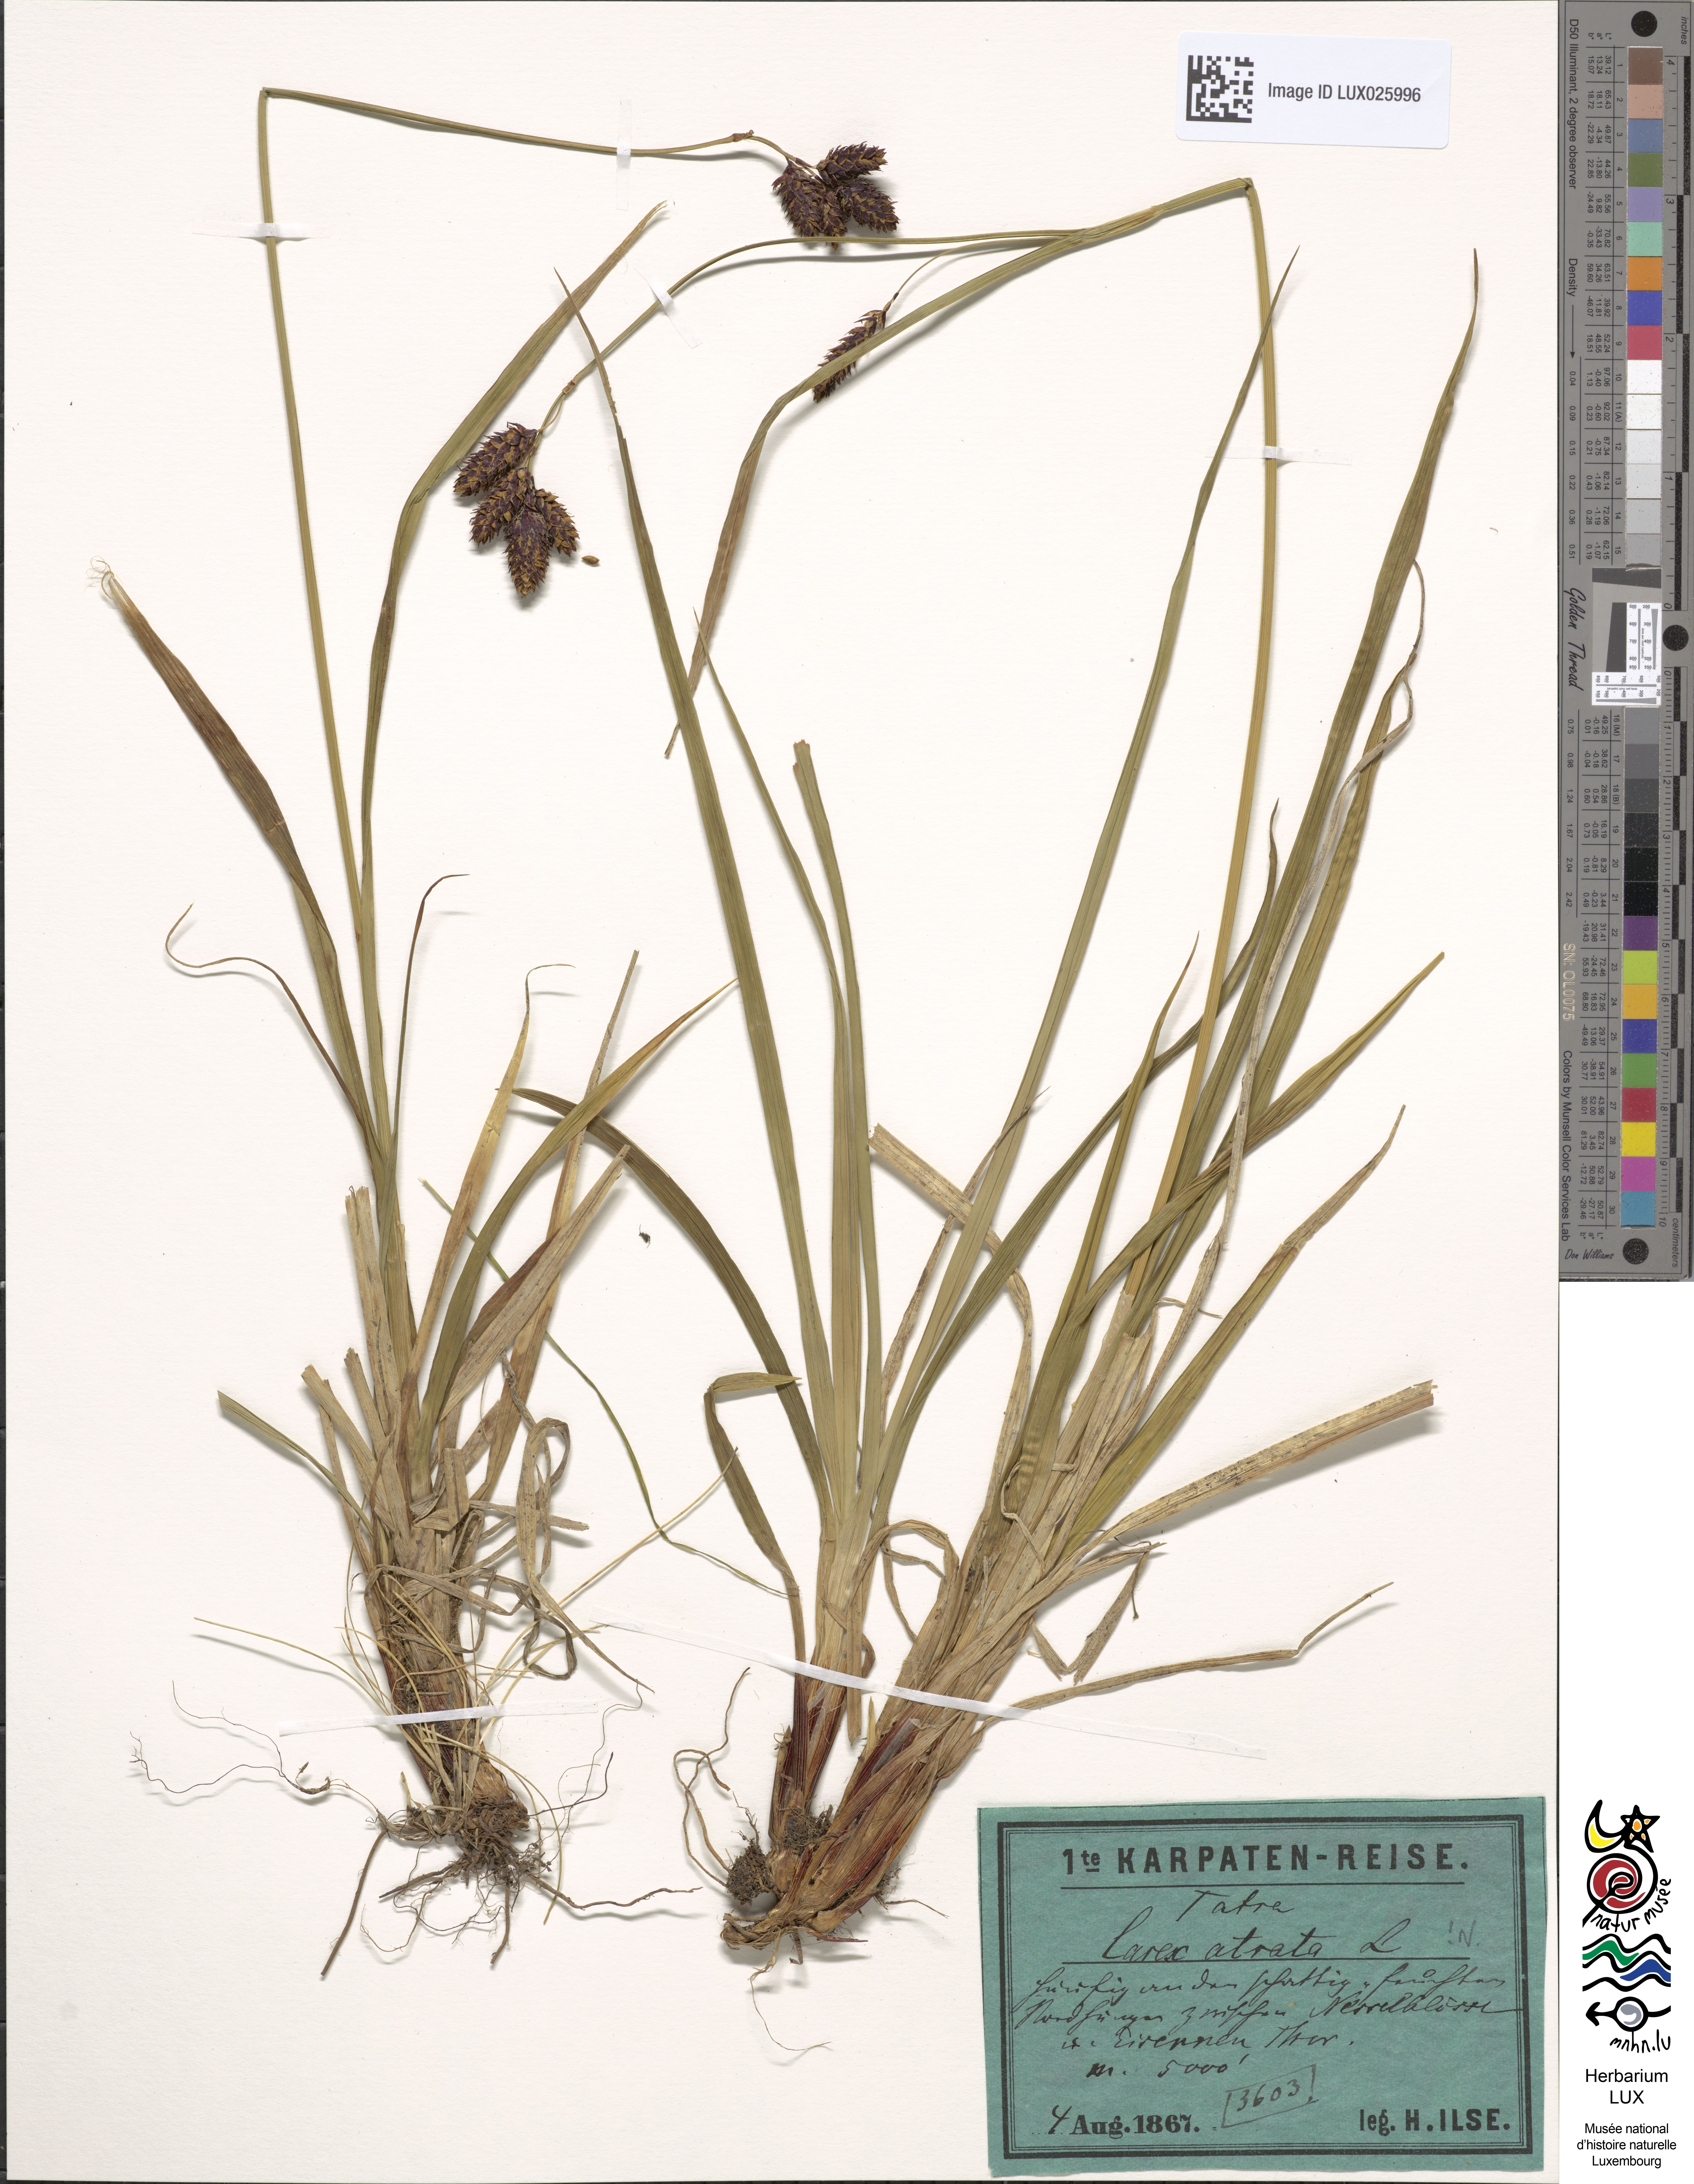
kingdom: Plantae
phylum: Tracheophyta
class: Liliopsida
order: Poales
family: Cyperaceae
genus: Carex
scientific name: Carex atrata
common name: Black alpine sedge
